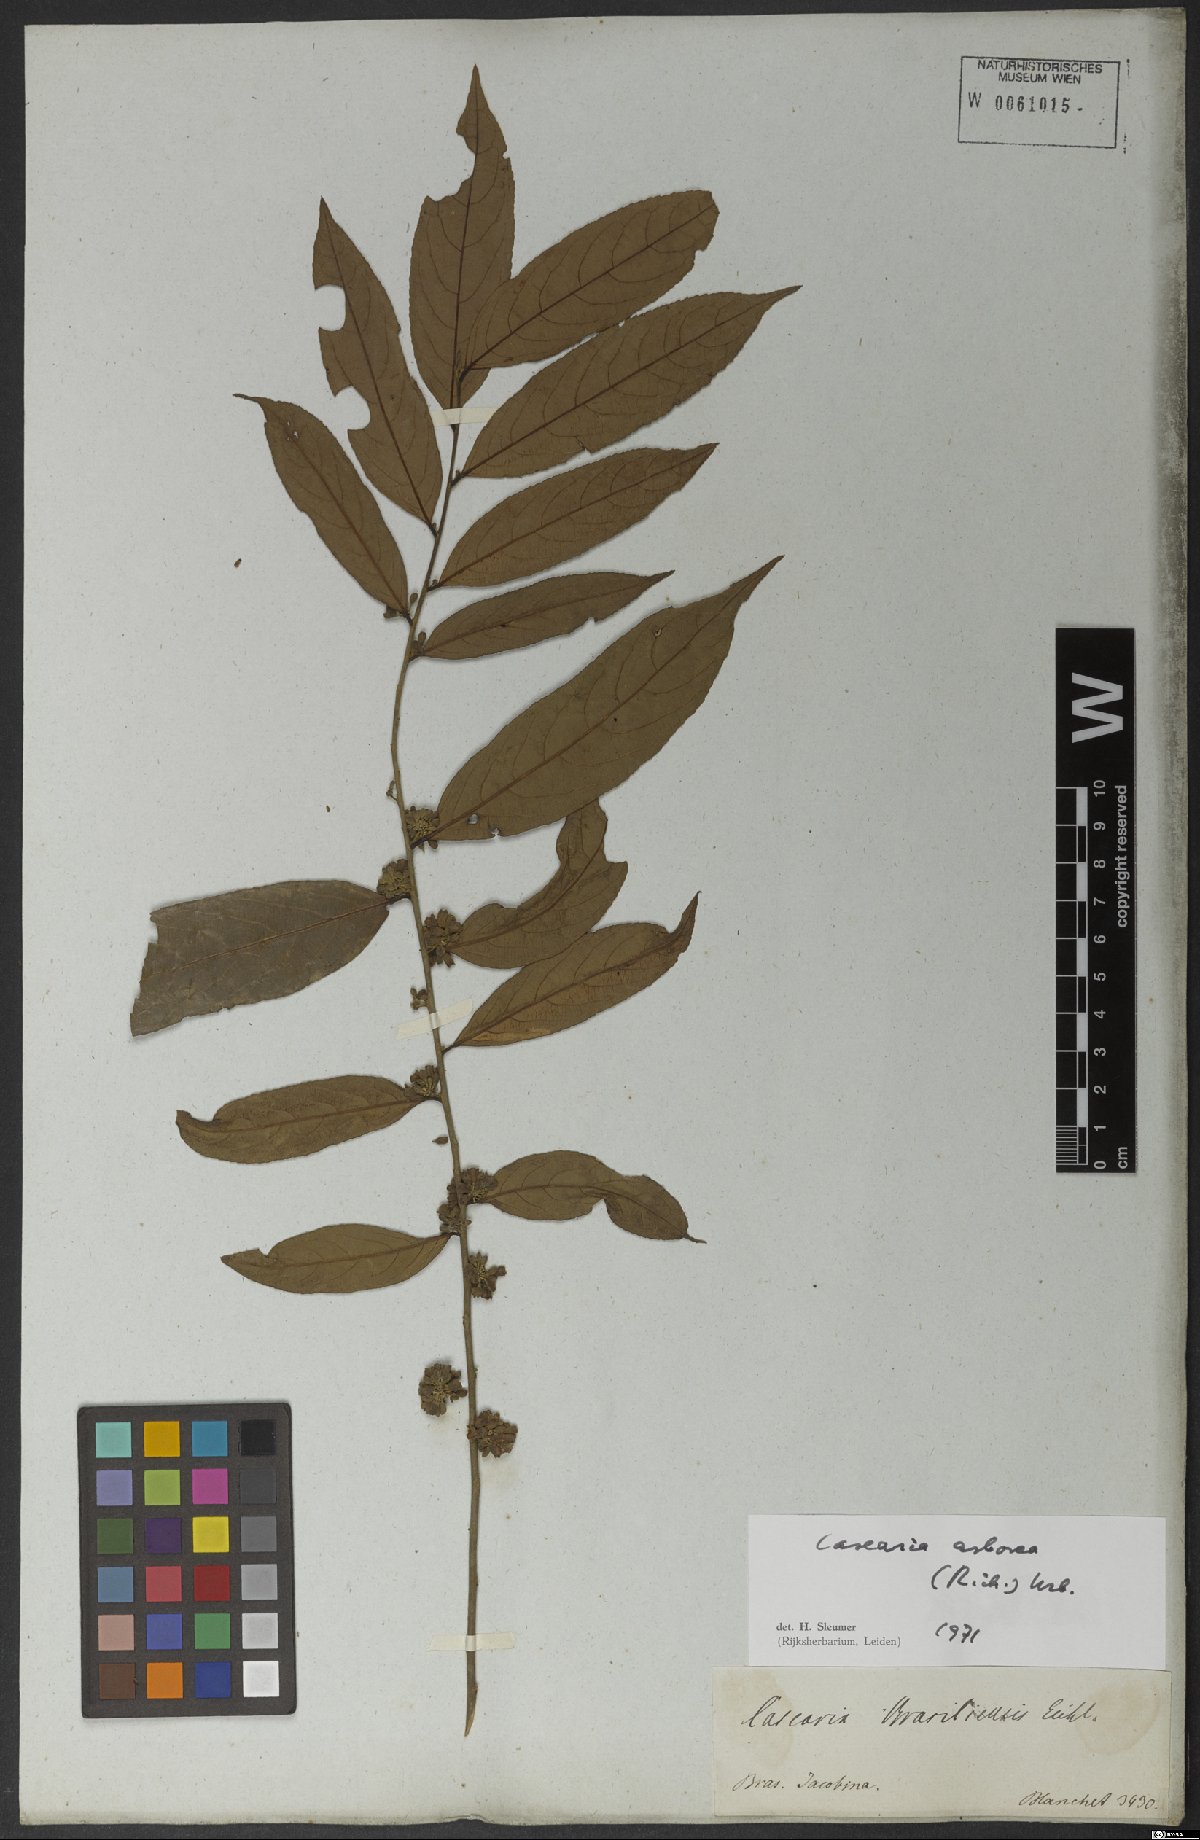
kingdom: Plantae
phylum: Tracheophyta
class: Magnoliopsida
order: Malpighiales
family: Salicaceae
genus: Casearia
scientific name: Casearia arborea
